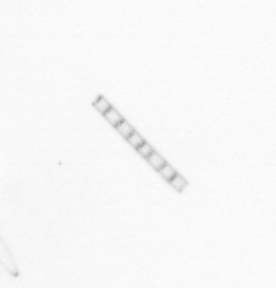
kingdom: Chromista
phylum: Ochrophyta
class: Bacillariophyceae
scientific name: Bacillariophyceae
